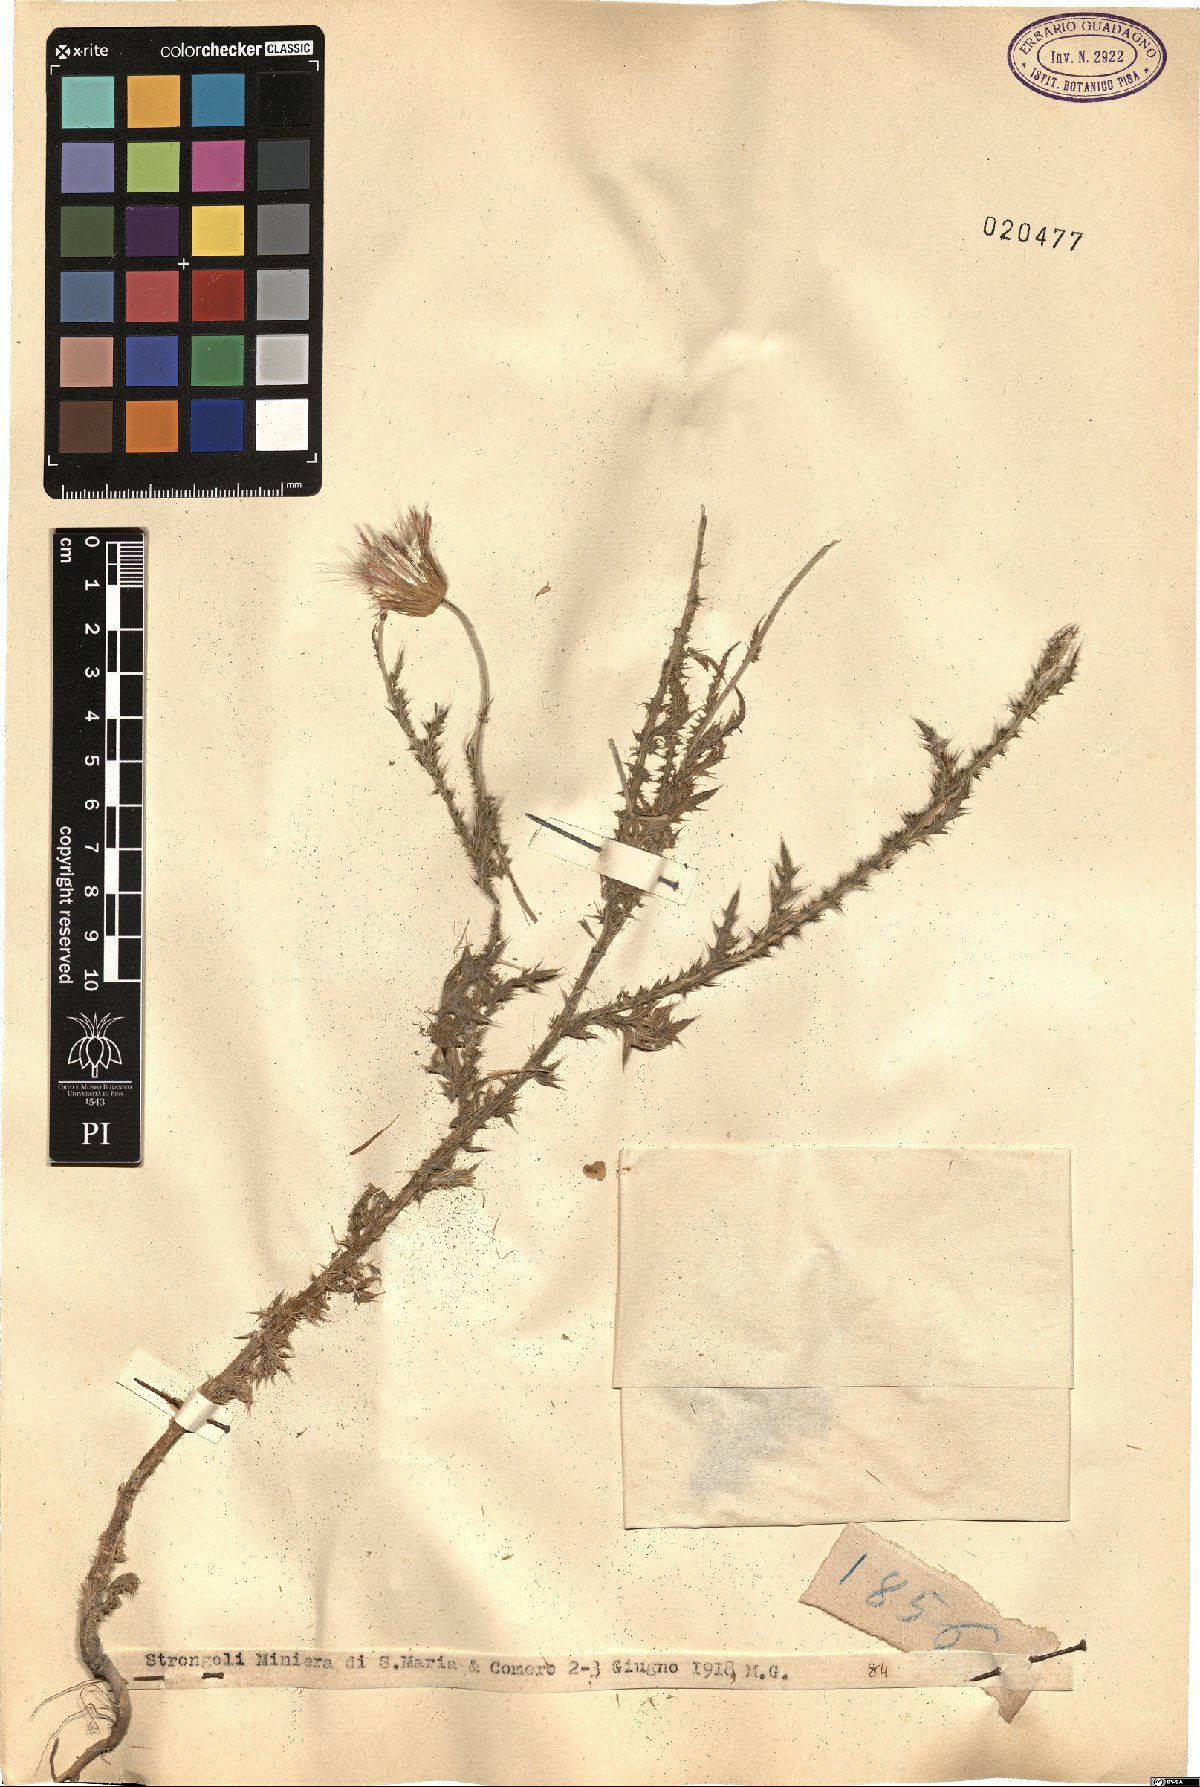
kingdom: Plantae
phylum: Tracheophyta
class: Magnoliopsida
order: Asterales
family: Asteraceae
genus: Carduus
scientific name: Carduus
